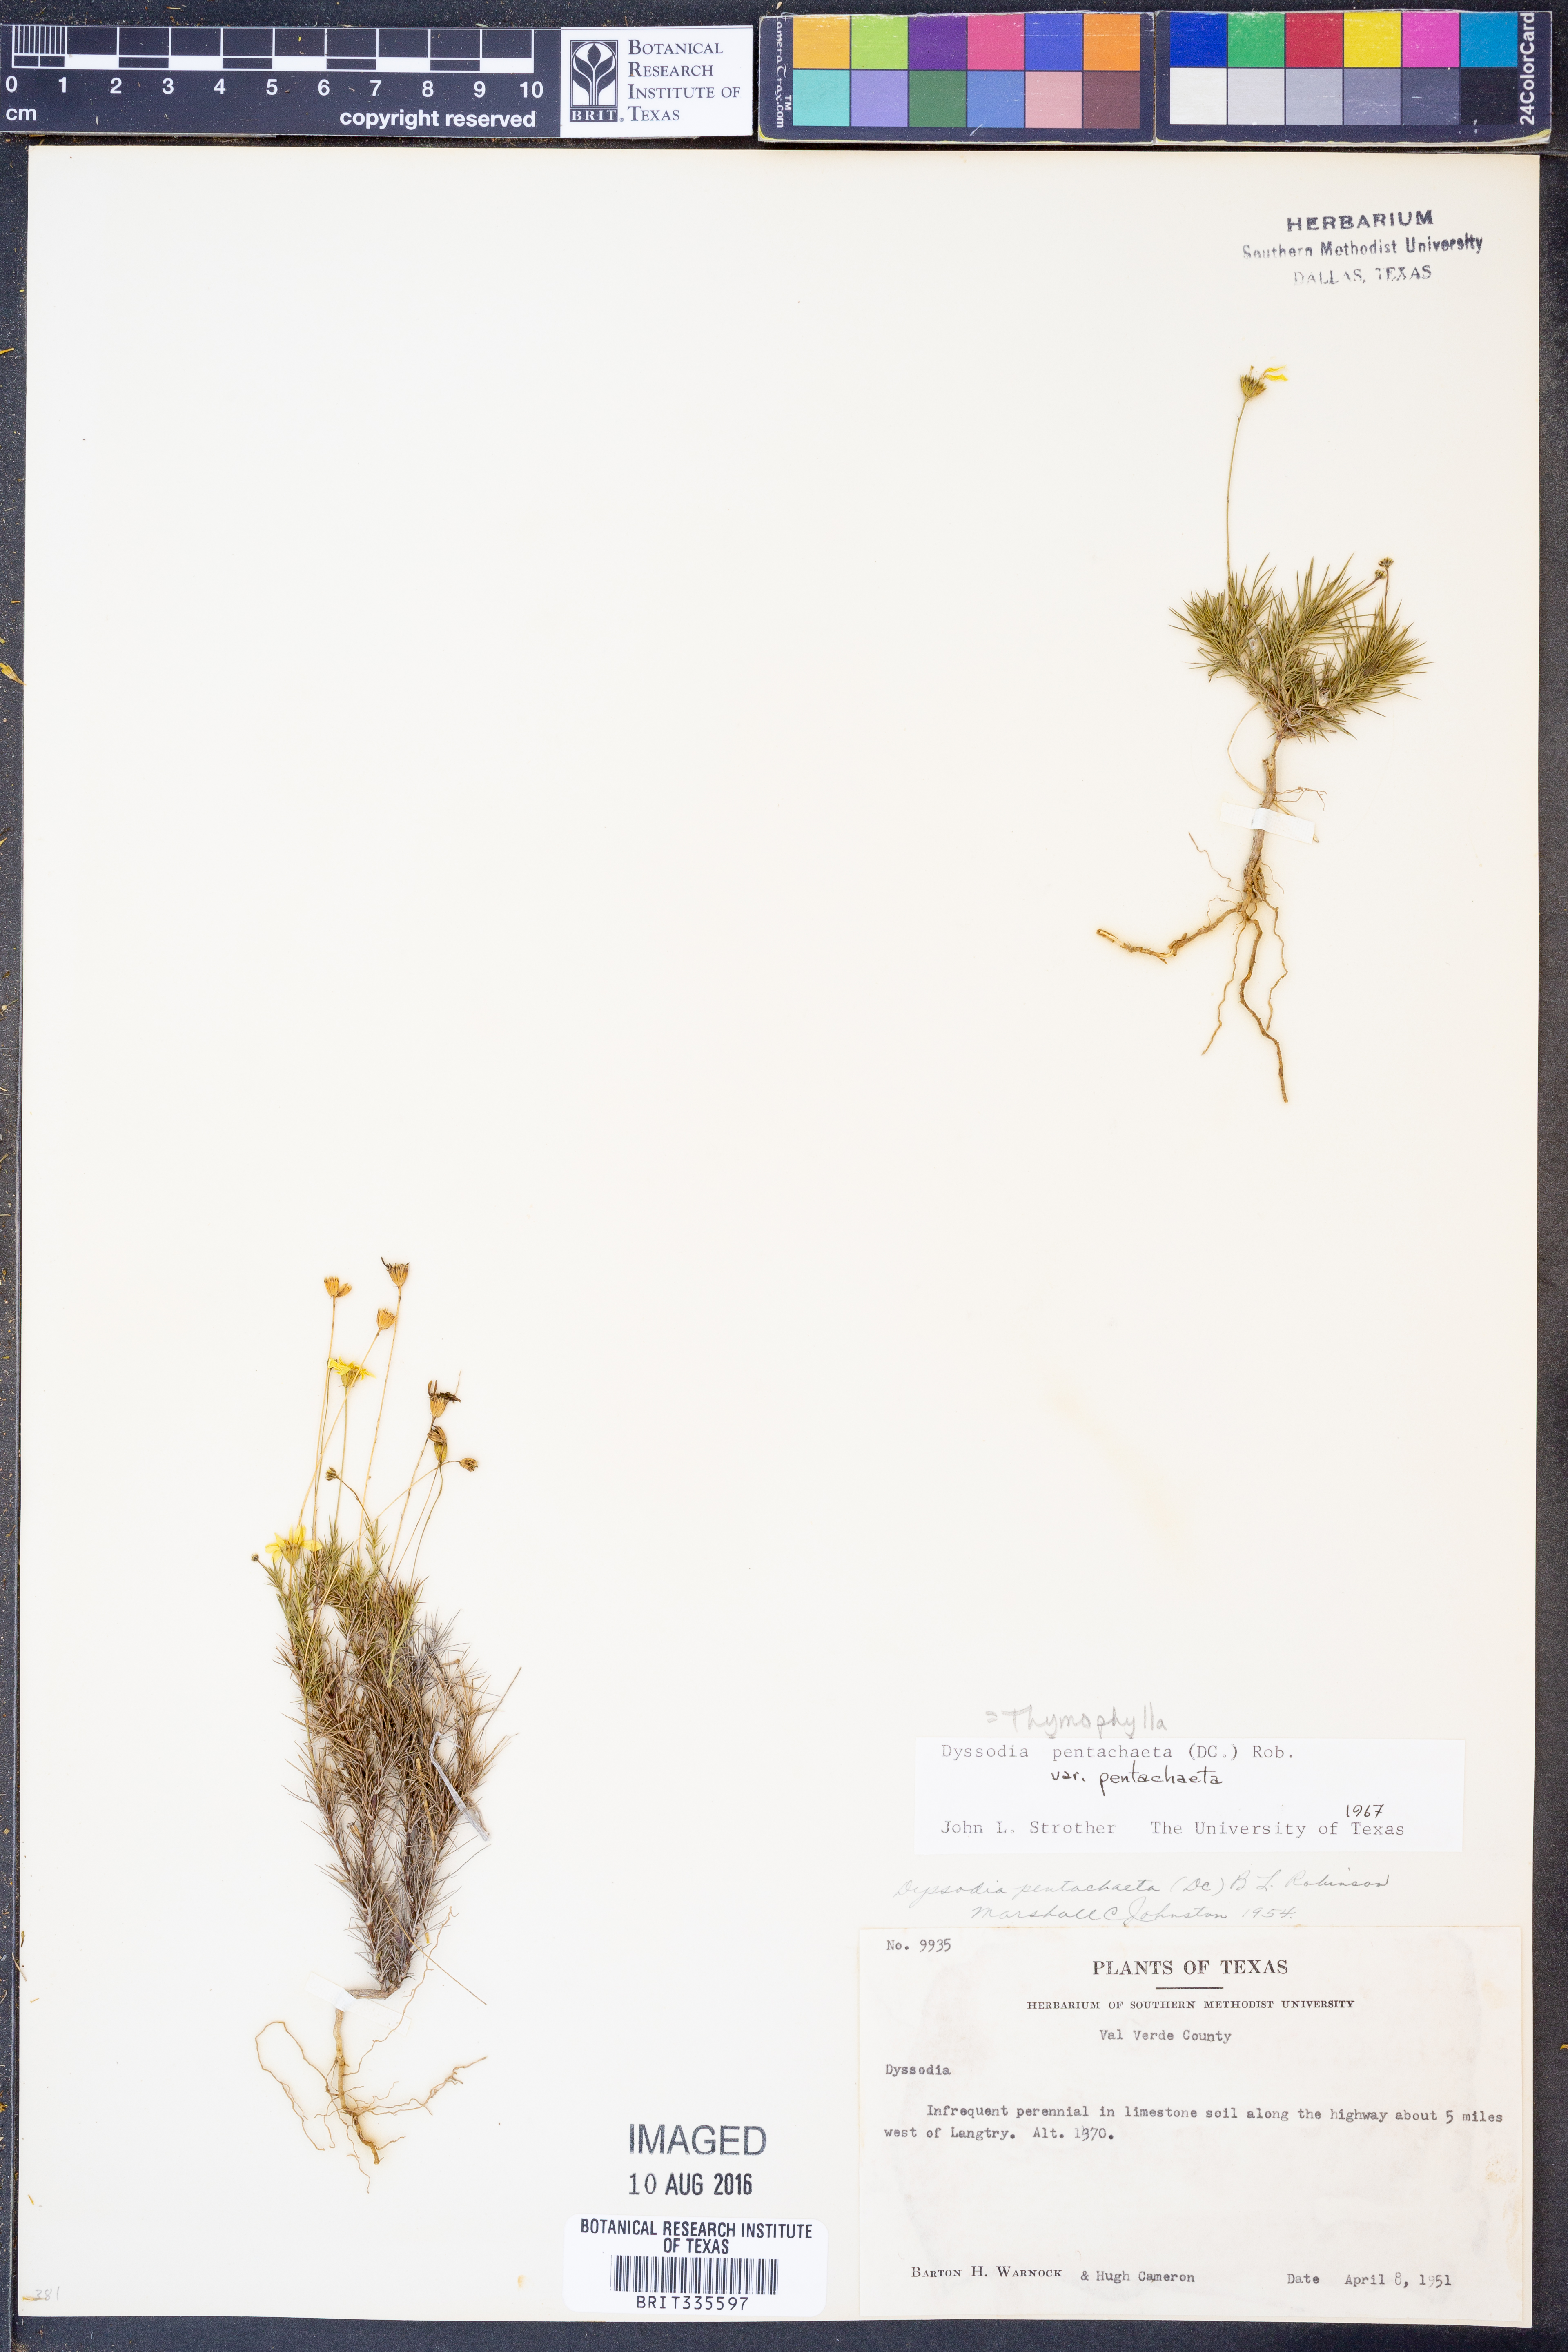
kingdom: Plantae
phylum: Tracheophyta
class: Magnoliopsida
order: Asterales
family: Asteraceae
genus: Thymophylla
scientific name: Thymophylla pentachaeta
